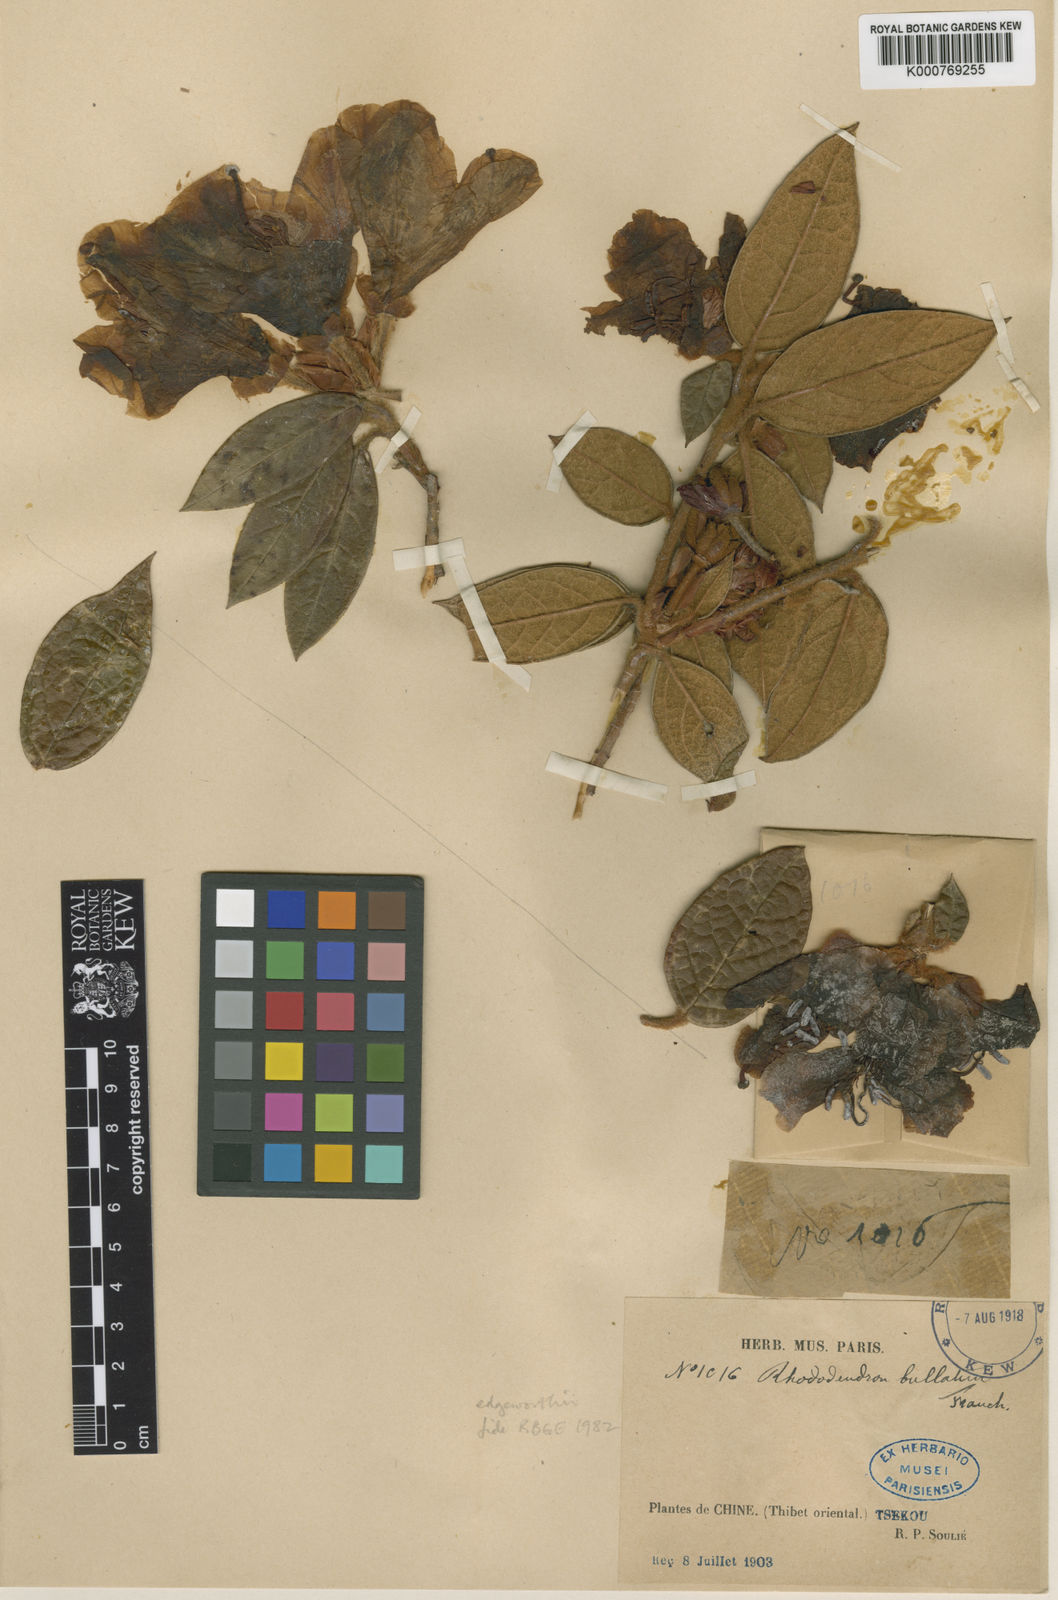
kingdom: Plantae
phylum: Tracheophyta
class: Magnoliopsida
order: Ericales
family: Ericaceae
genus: Rhododendron
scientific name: Rhododendron edgeworthii
